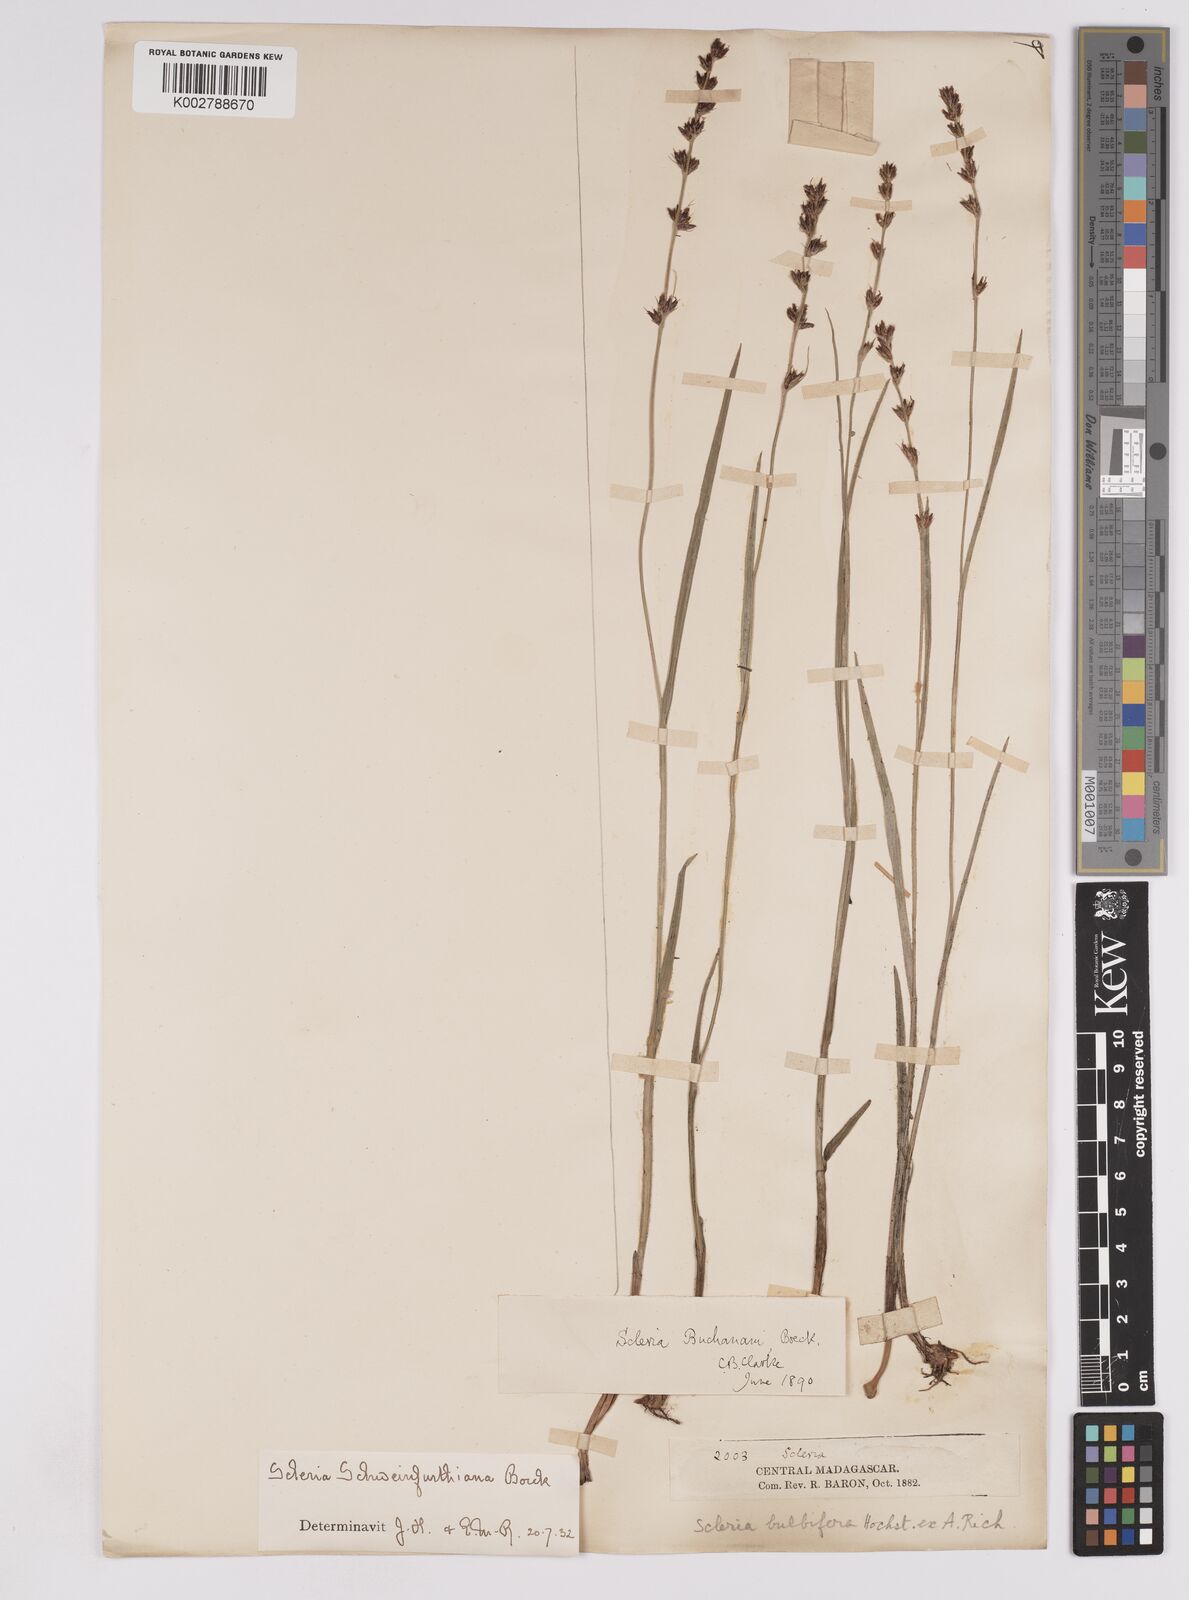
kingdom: Plantae
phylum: Tracheophyta
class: Liliopsida
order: Poales
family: Cyperaceae
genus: Scleria
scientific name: Scleria bulbifera
